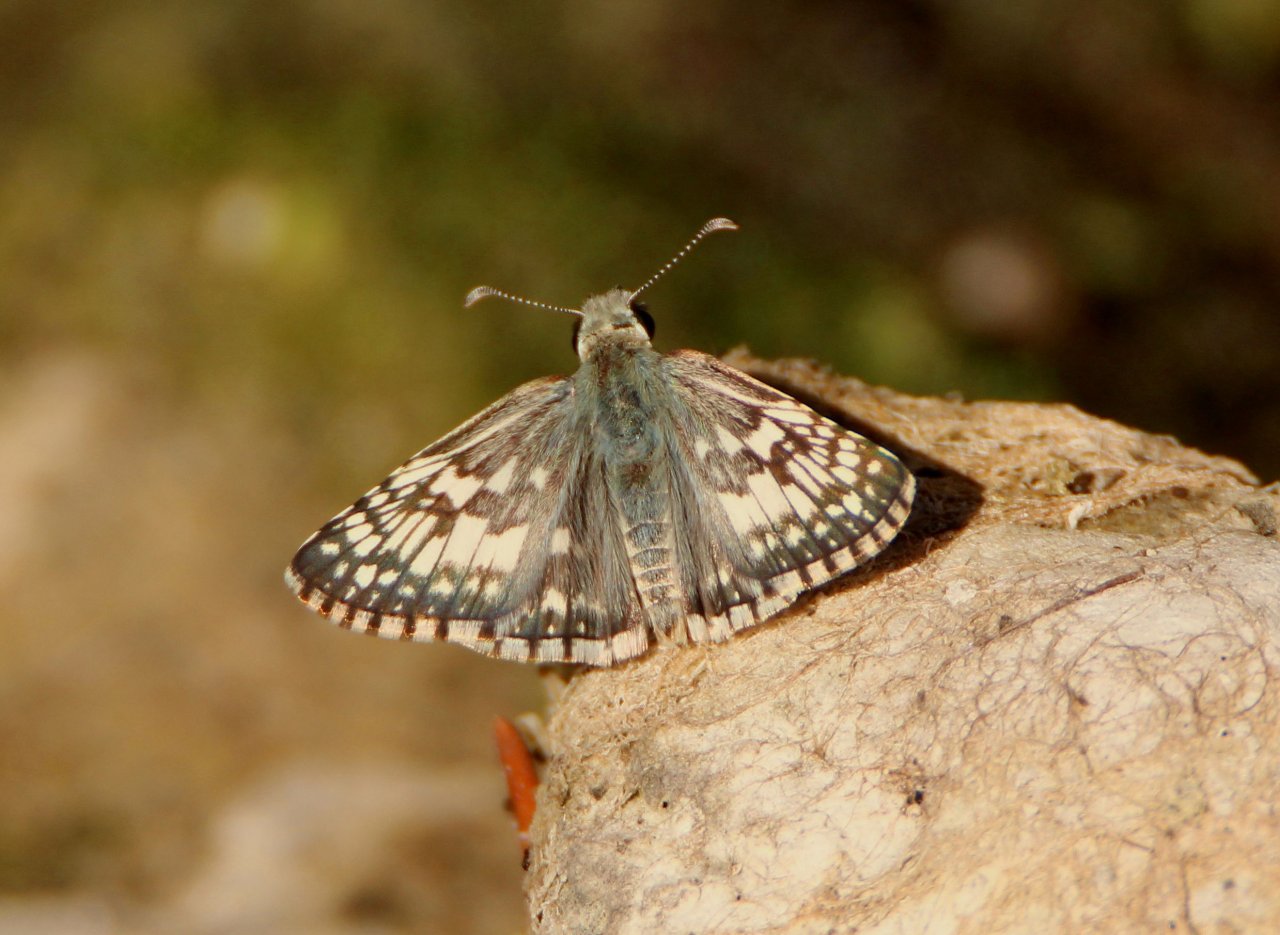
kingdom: Animalia
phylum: Arthropoda
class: Insecta
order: Lepidoptera
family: Hesperiidae
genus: Pyrgus
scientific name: Pyrgus communis
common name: Common Checkered-Skipper
